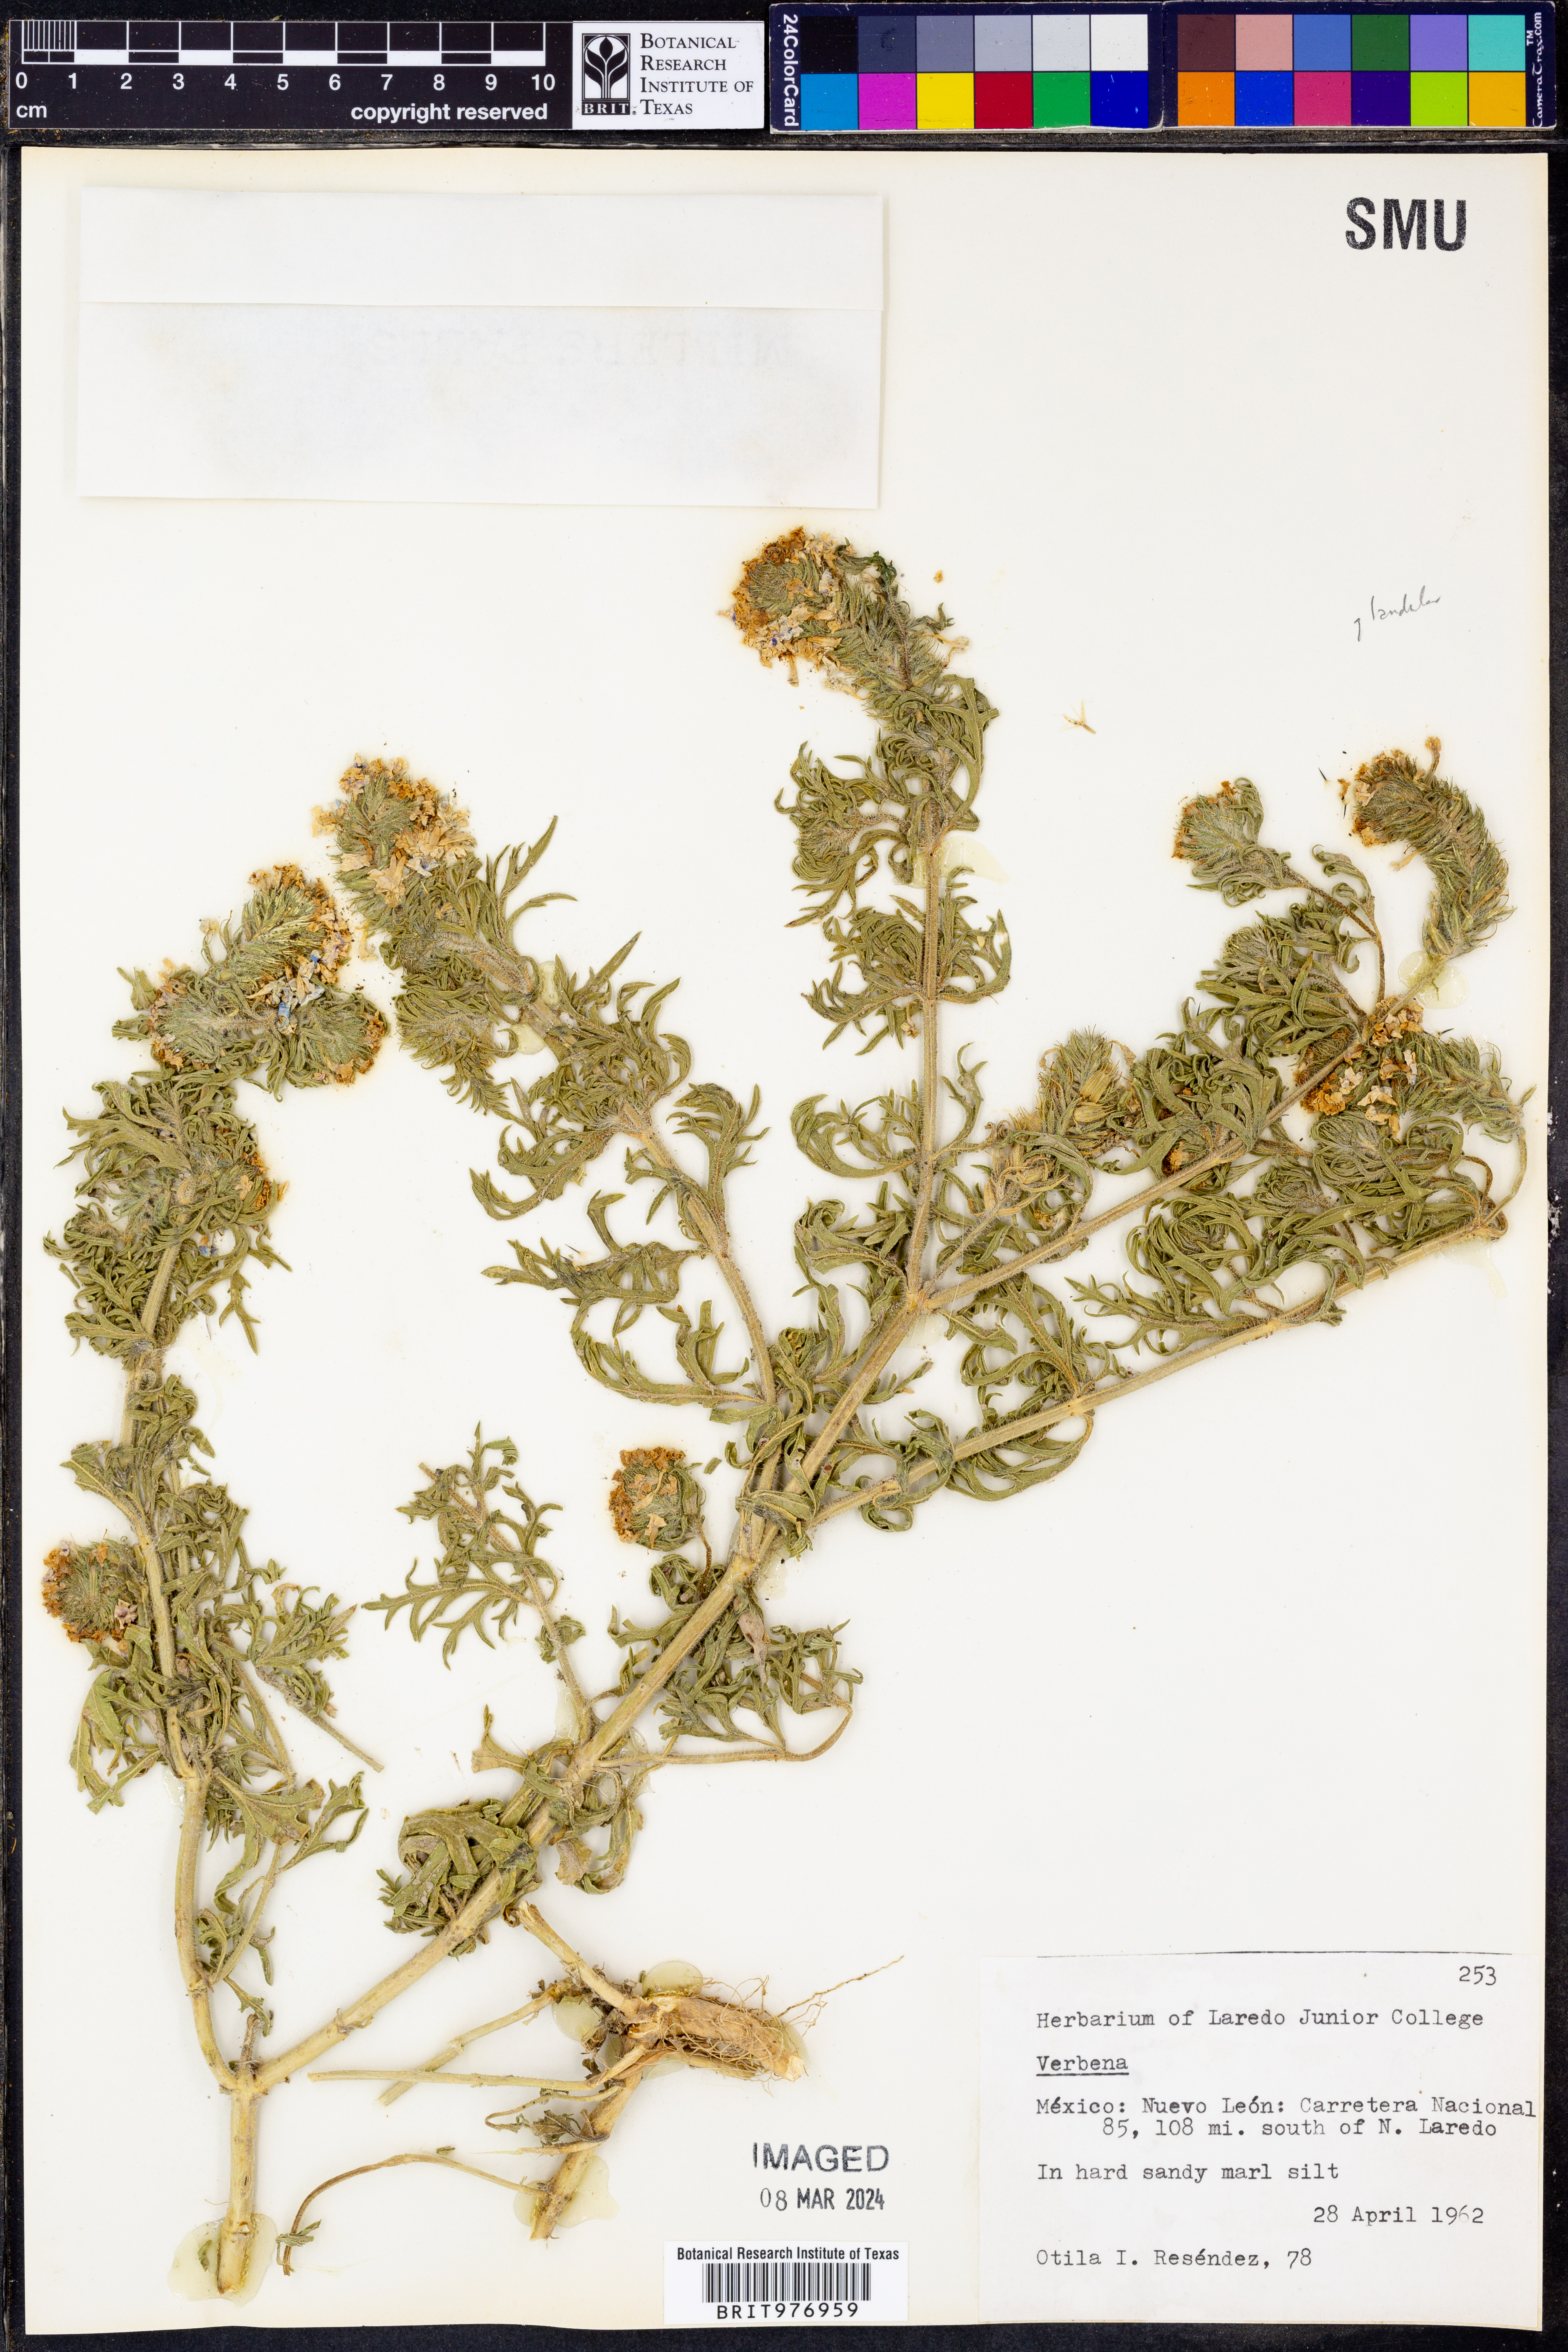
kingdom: Plantae
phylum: Tracheophyta
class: Magnoliopsida
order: Lamiales
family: Verbenaceae
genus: Verbena
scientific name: Verbena
